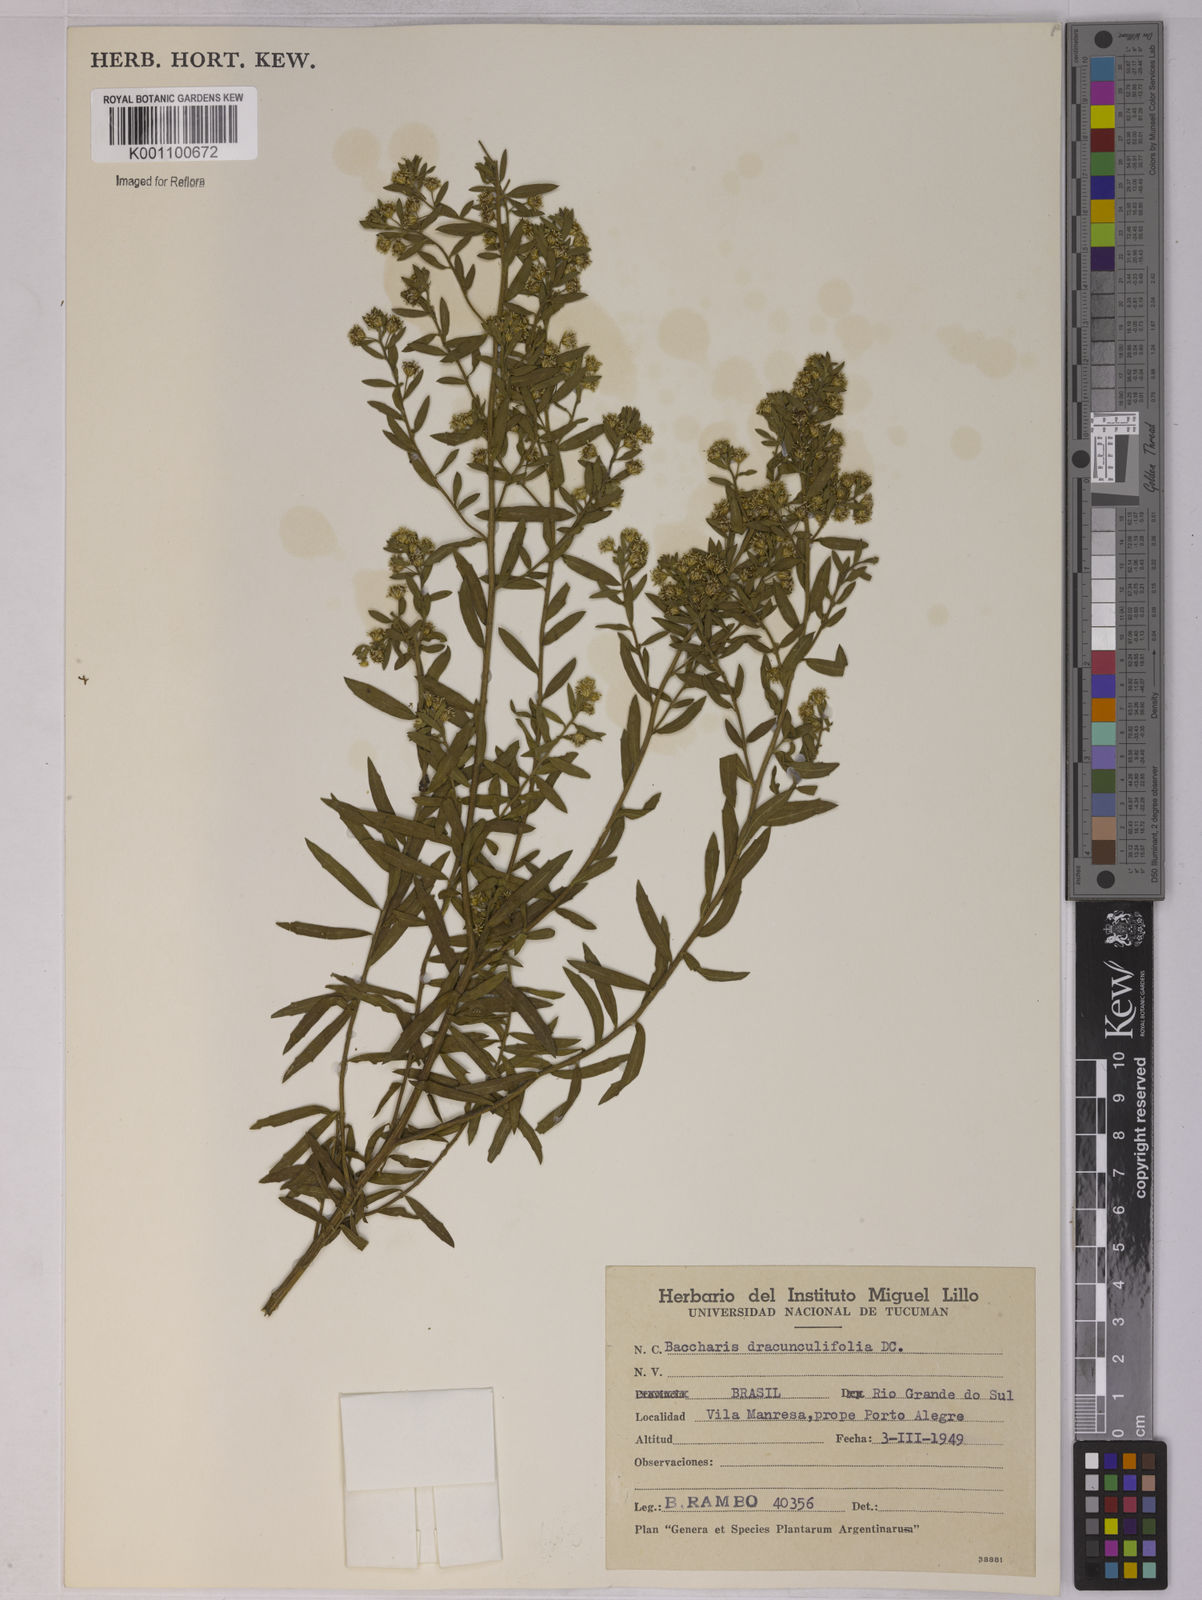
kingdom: Plantae
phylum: Tracheophyta
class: Magnoliopsida
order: Asterales
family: Asteraceae
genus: Baccharis
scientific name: Baccharis dracunculifolia
